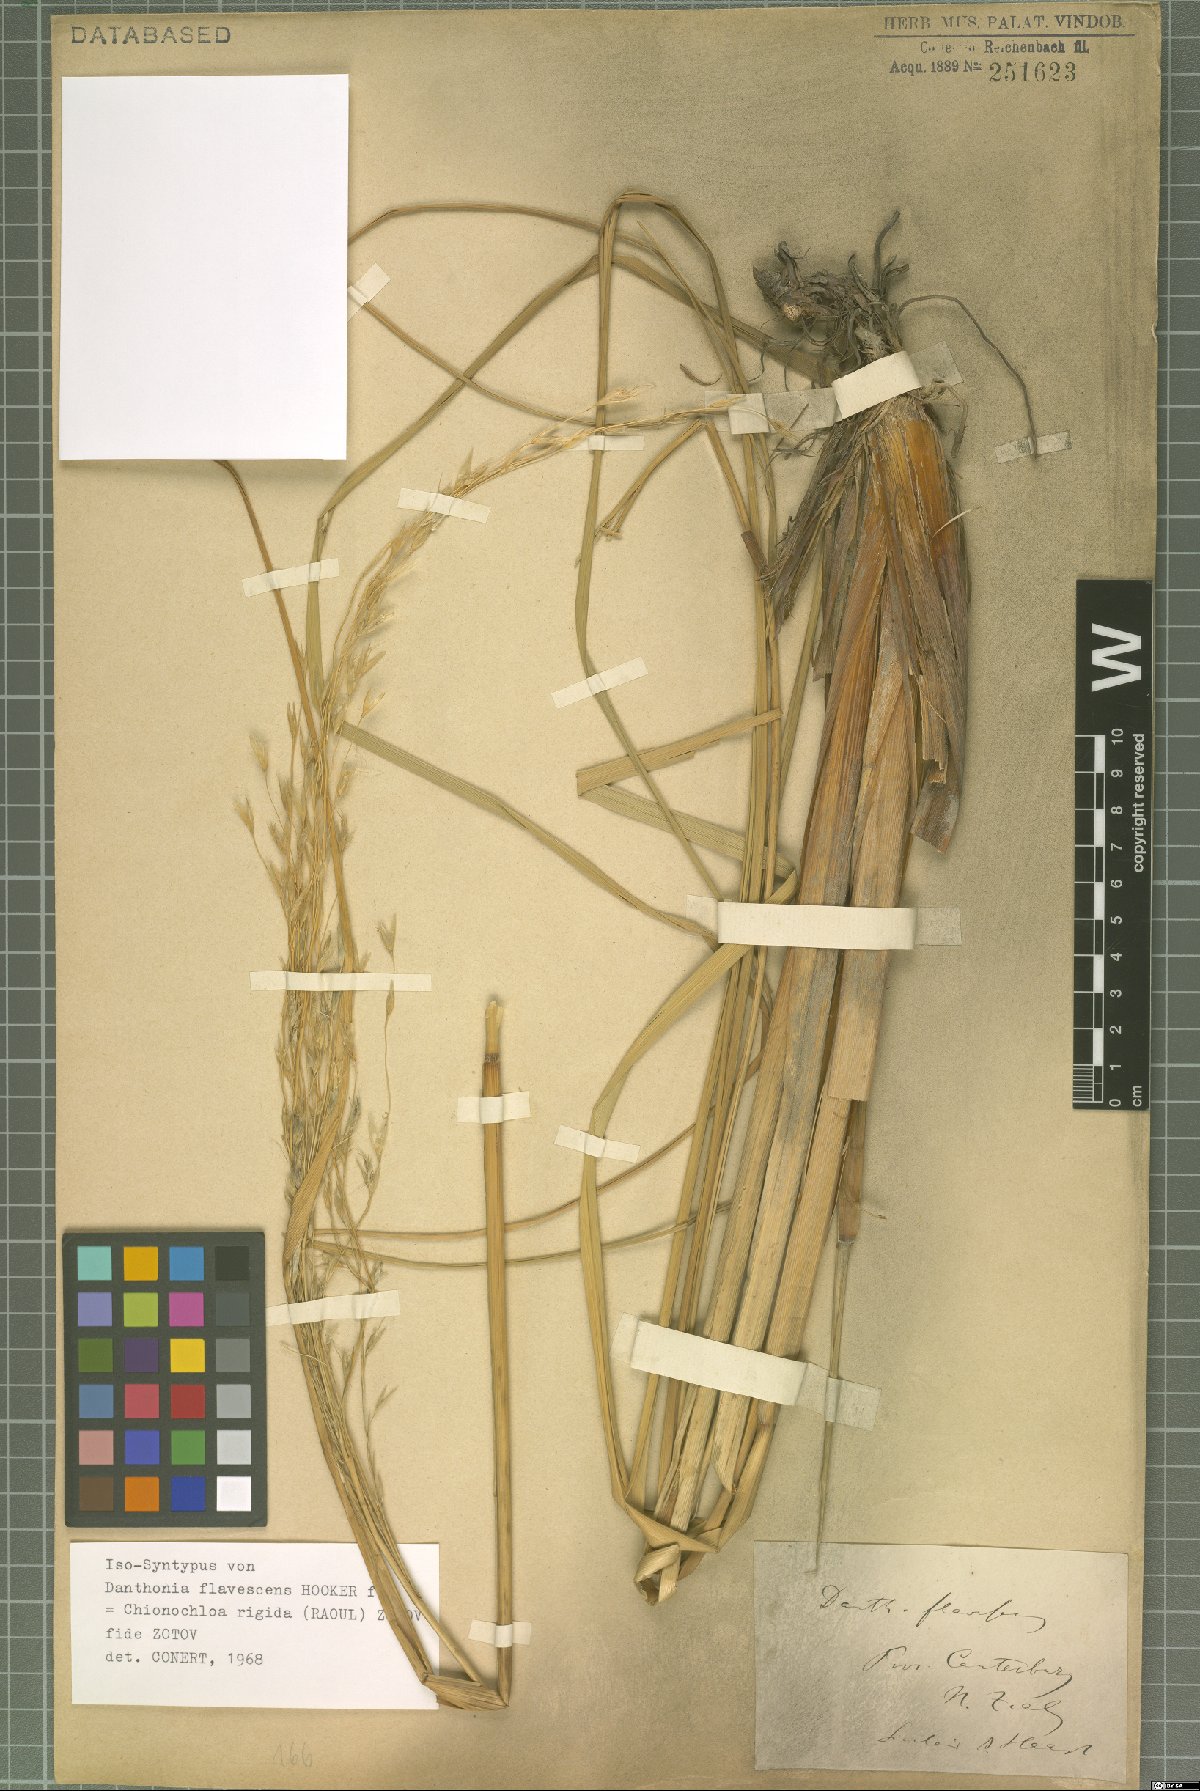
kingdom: Plantae
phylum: Tracheophyta
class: Liliopsida
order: Poales
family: Poaceae
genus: Chionochloa
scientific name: Chionochloa rigida
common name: Narrow leaved snow tussock
